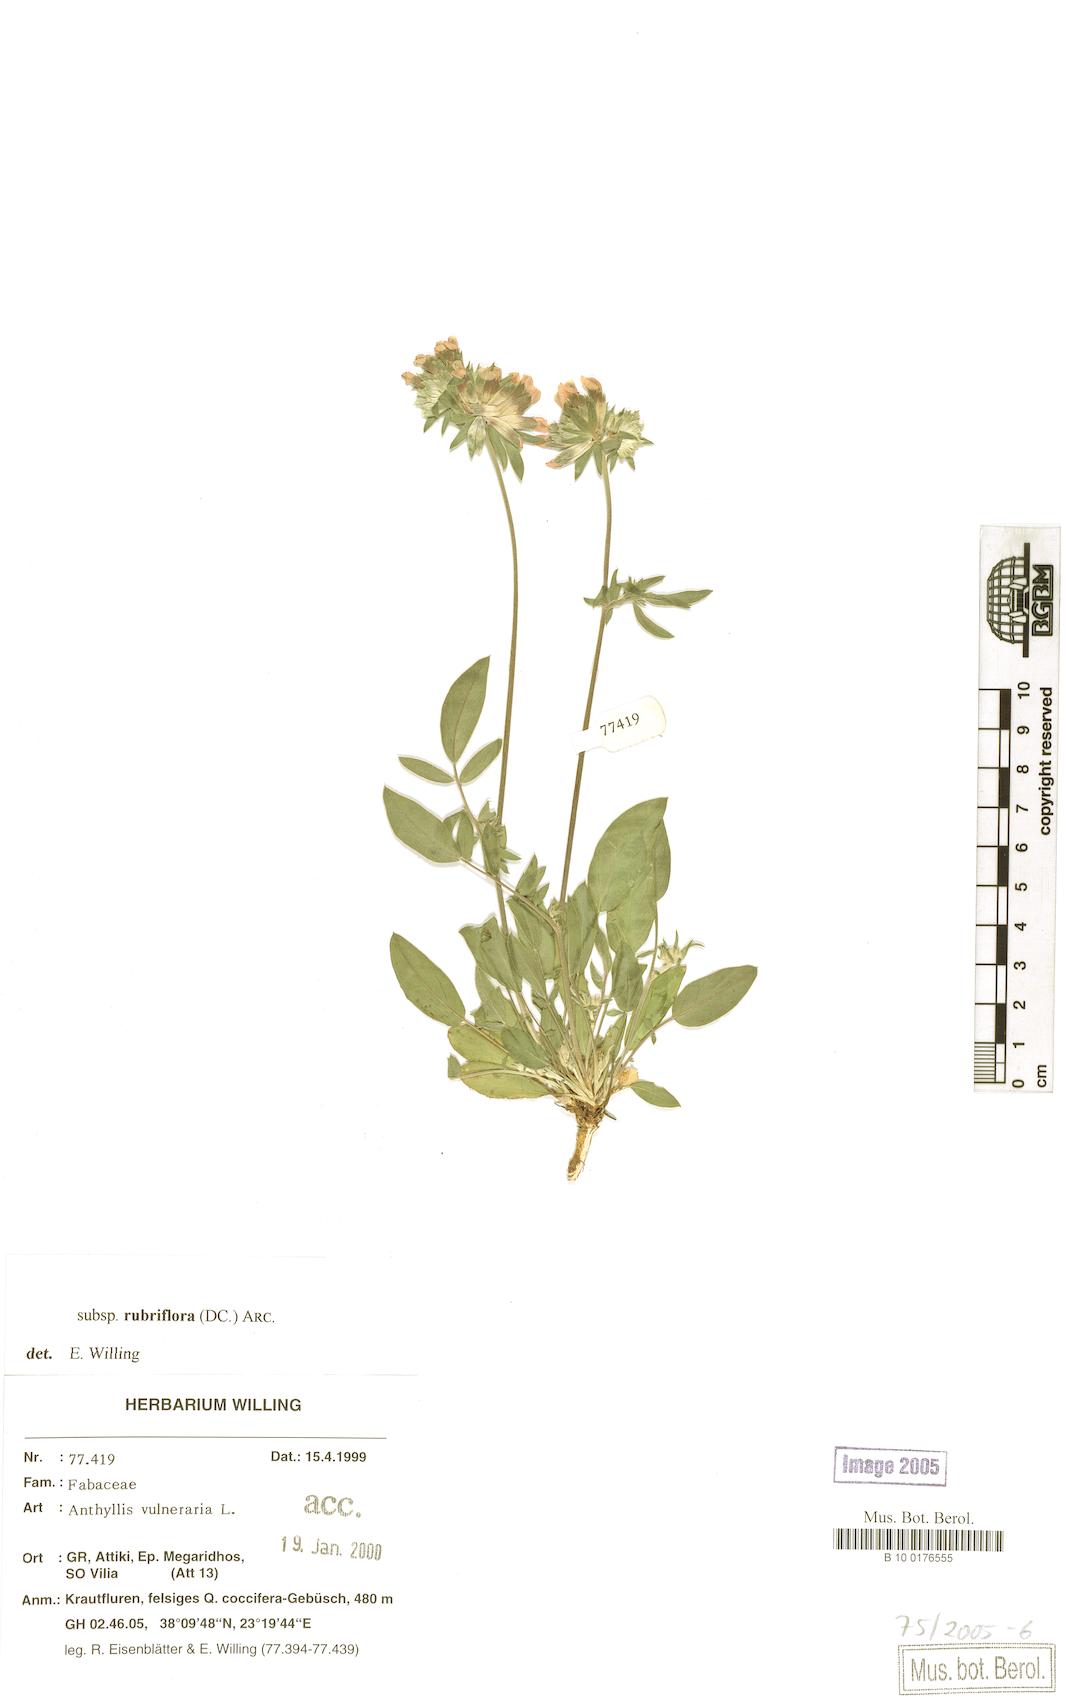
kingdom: Plantae
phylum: Tracheophyta
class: Magnoliopsida
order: Fabales
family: Fabaceae
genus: Anthyllis
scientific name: Anthyllis vulneraria
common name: Kidney vetch
